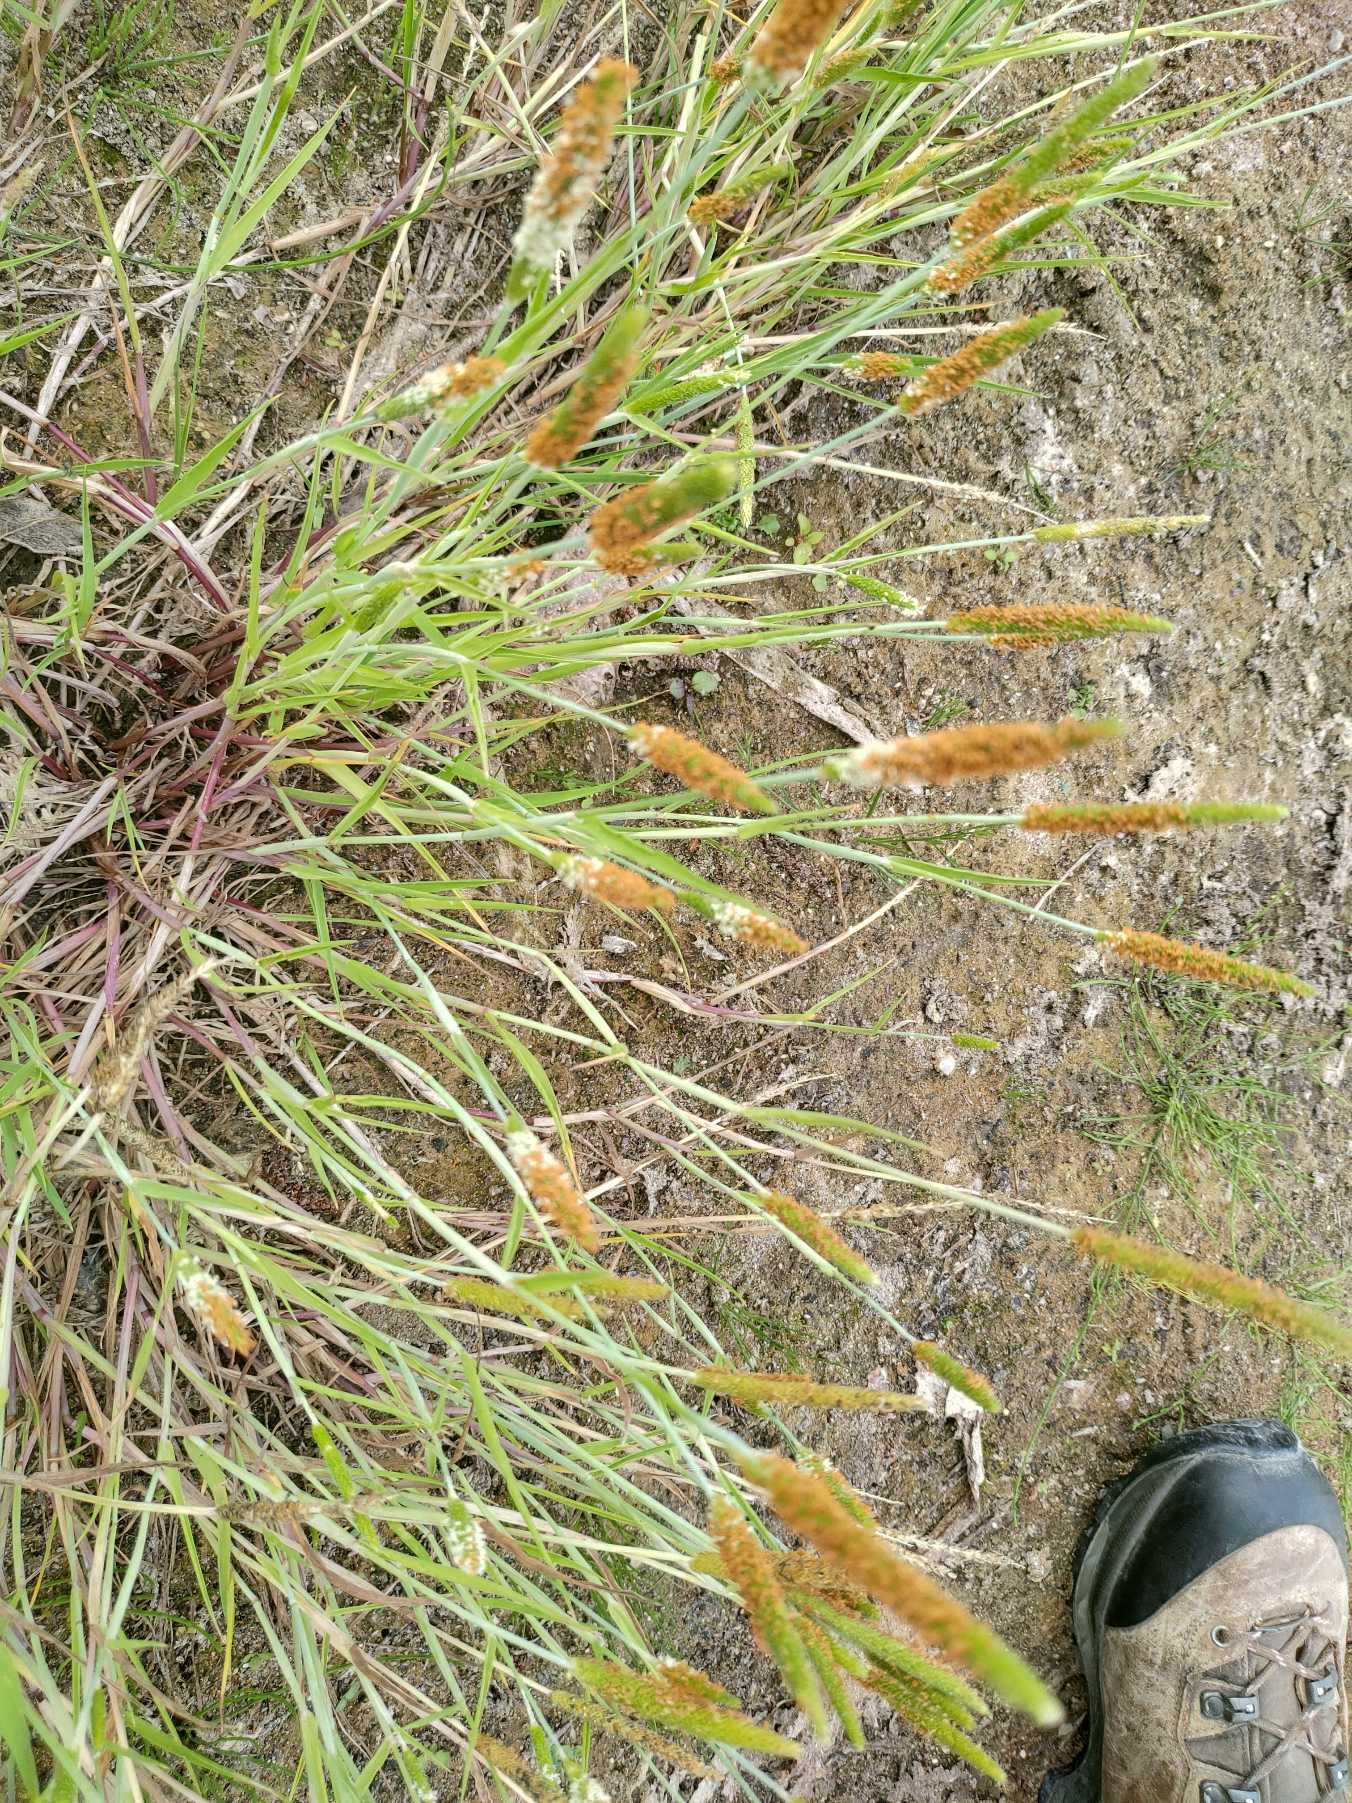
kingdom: Plantae
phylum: Tracheophyta
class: Liliopsida
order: Poales
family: Poaceae
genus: Alopecurus
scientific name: Alopecurus aequalis
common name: Gul rævehale
